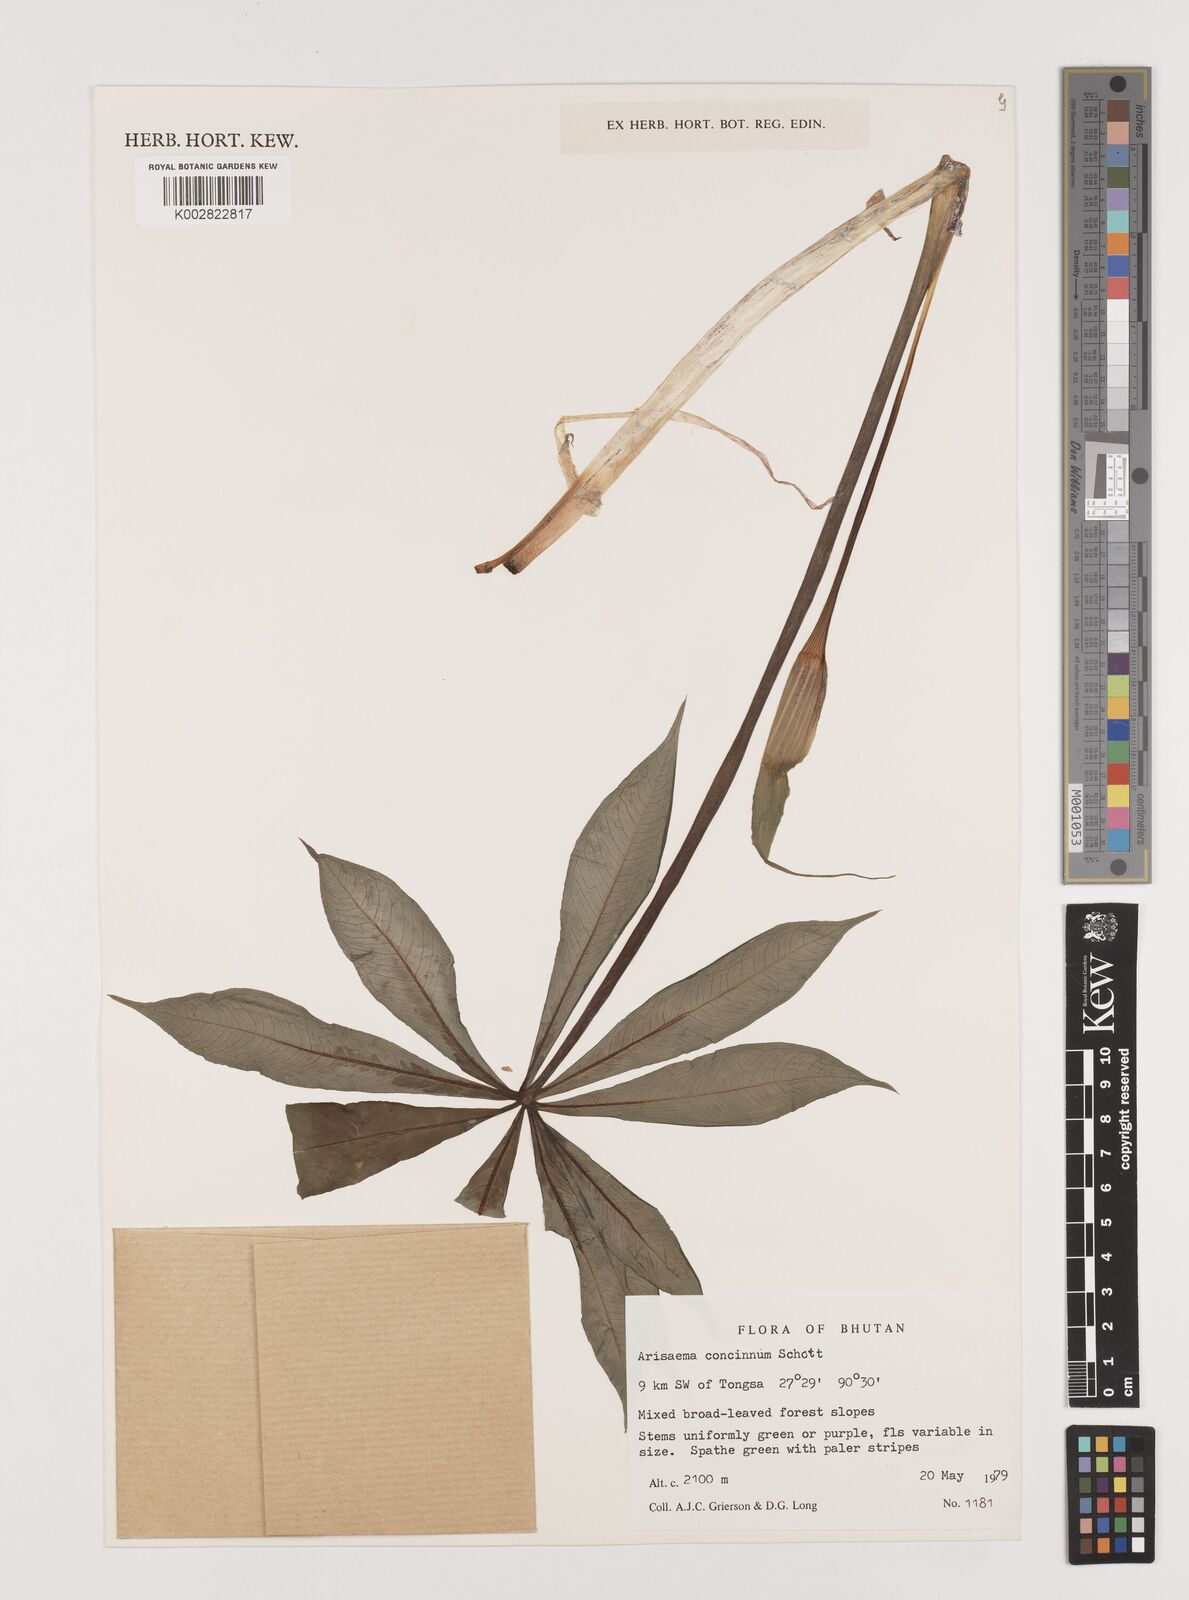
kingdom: Plantae
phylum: Tracheophyta
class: Liliopsida
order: Alismatales
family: Araceae
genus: Arisaema
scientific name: Arisaema concinnum
